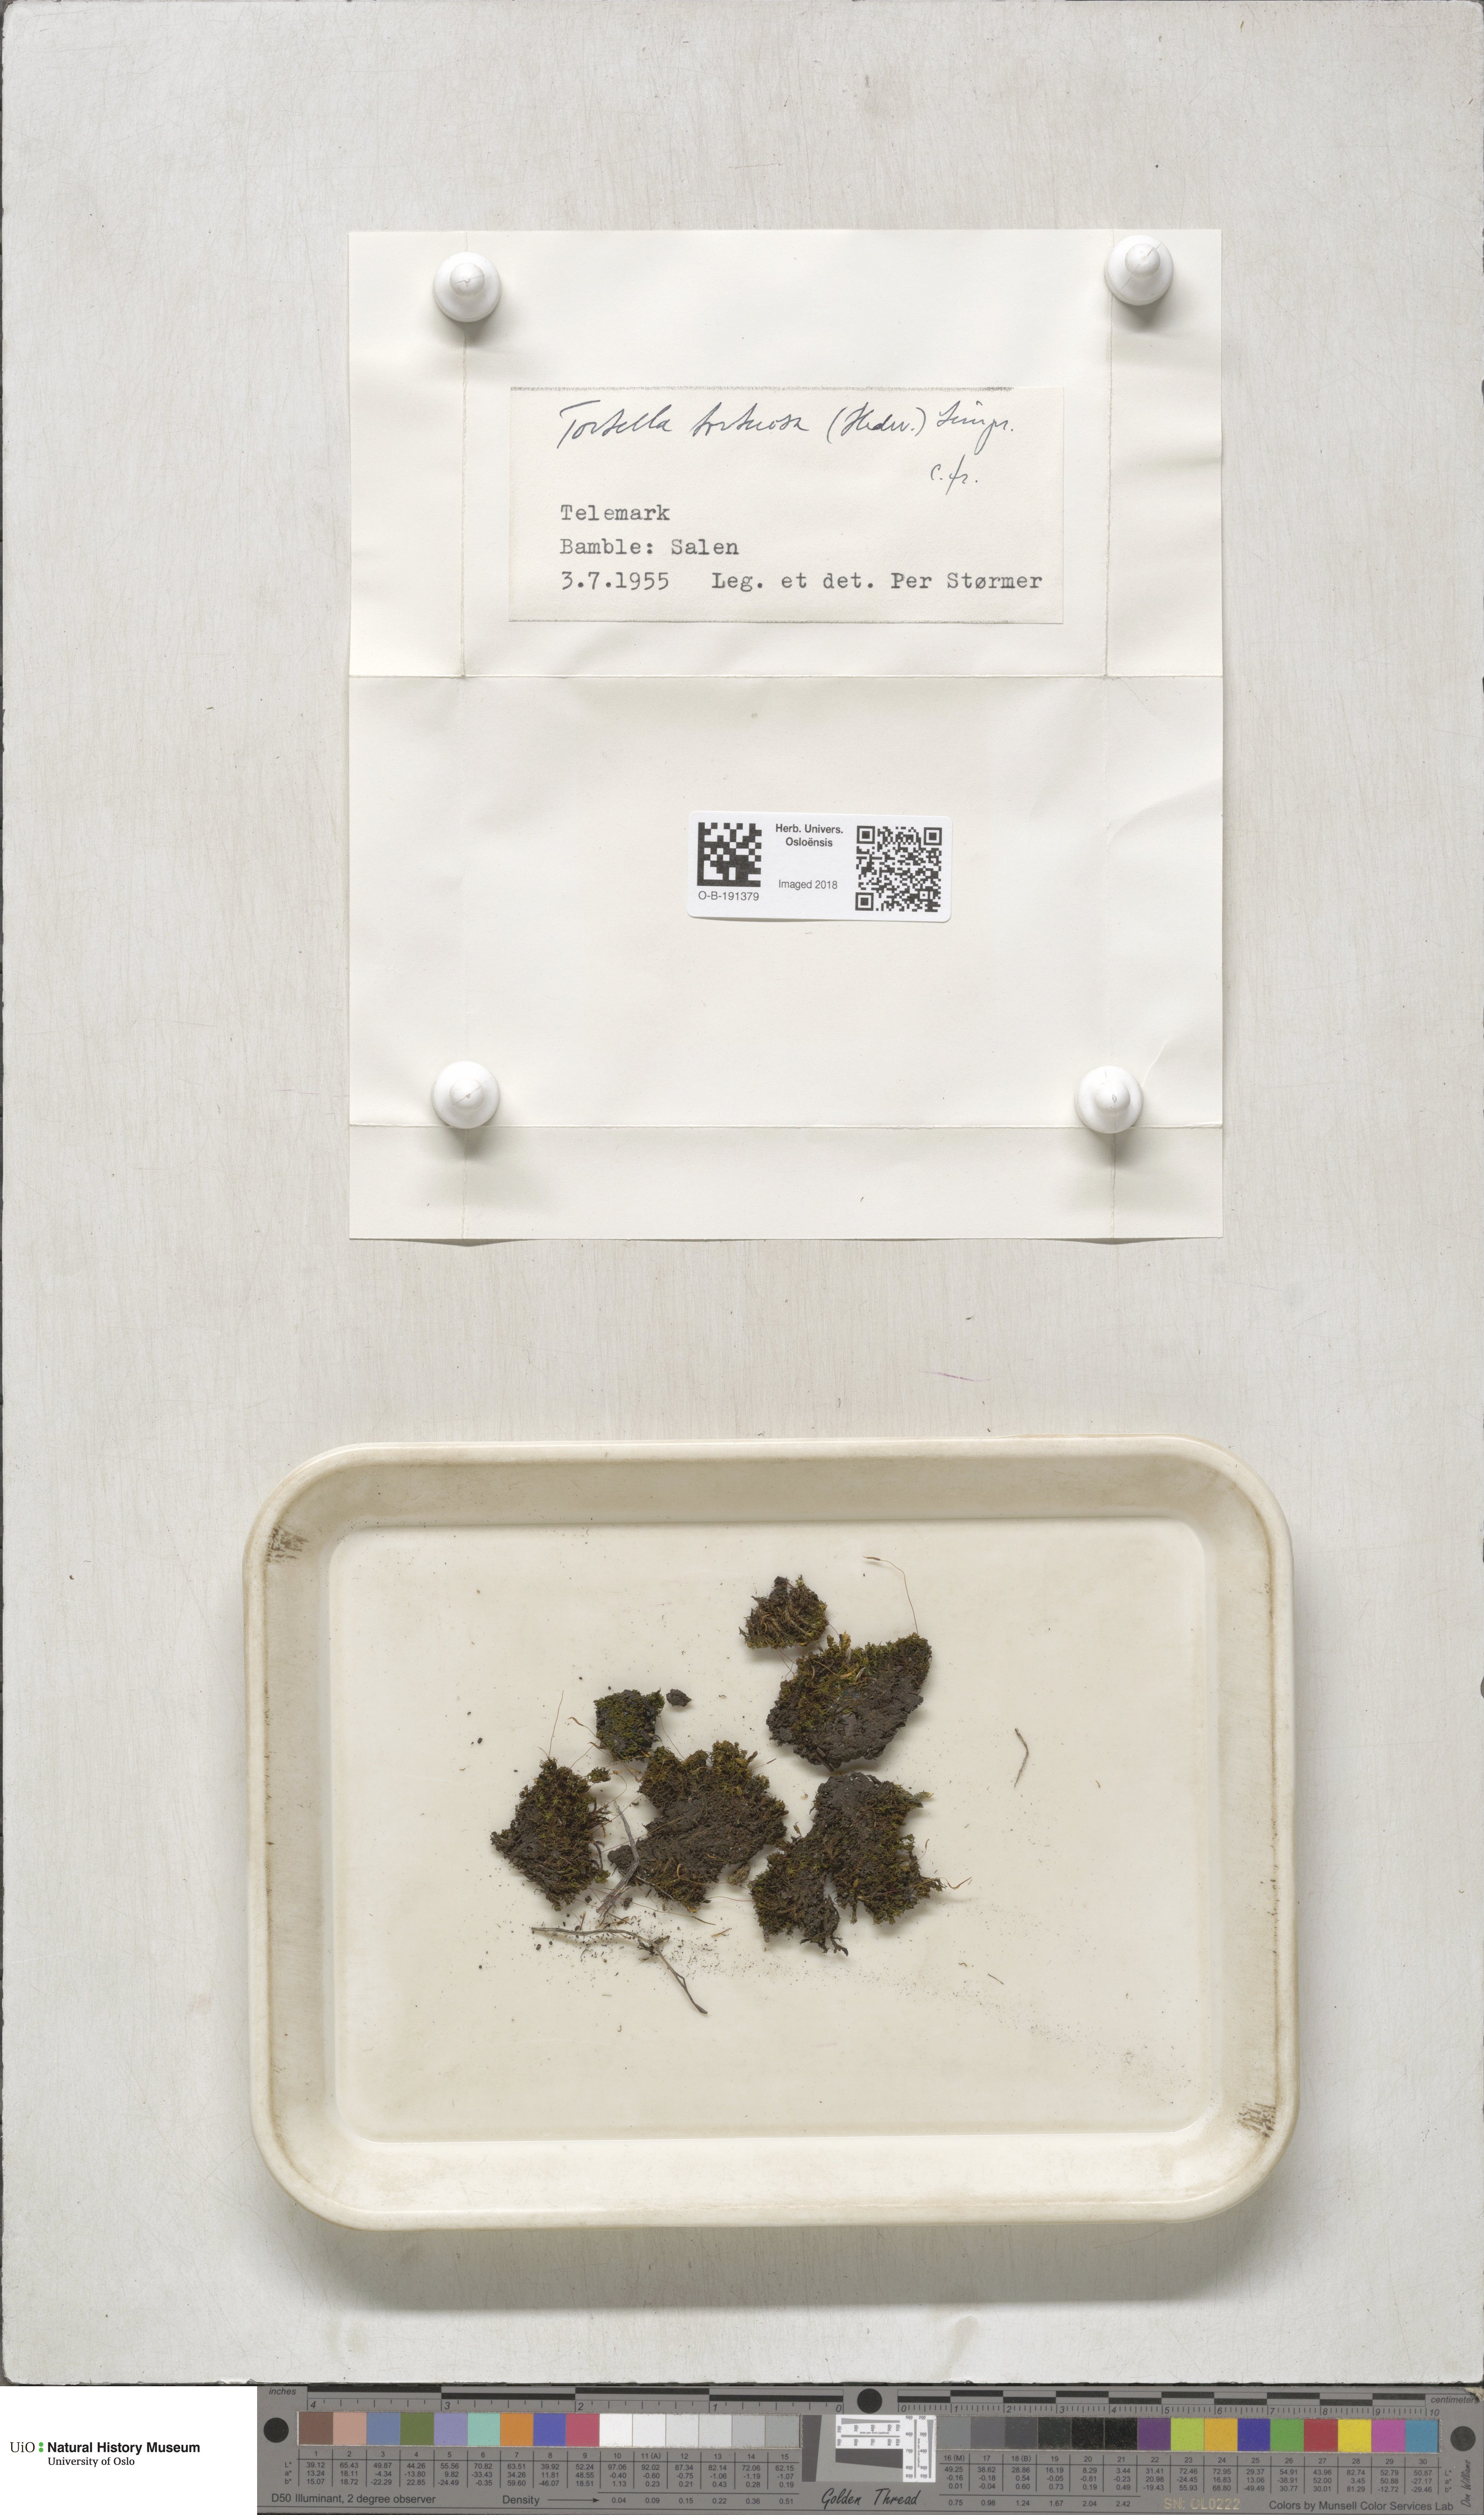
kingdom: Plantae
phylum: Bryophyta
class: Bryopsida
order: Pottiales
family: Pottiaceae
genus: Tortella
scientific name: Tortella tortuosa
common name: Frizzled crisp moss
